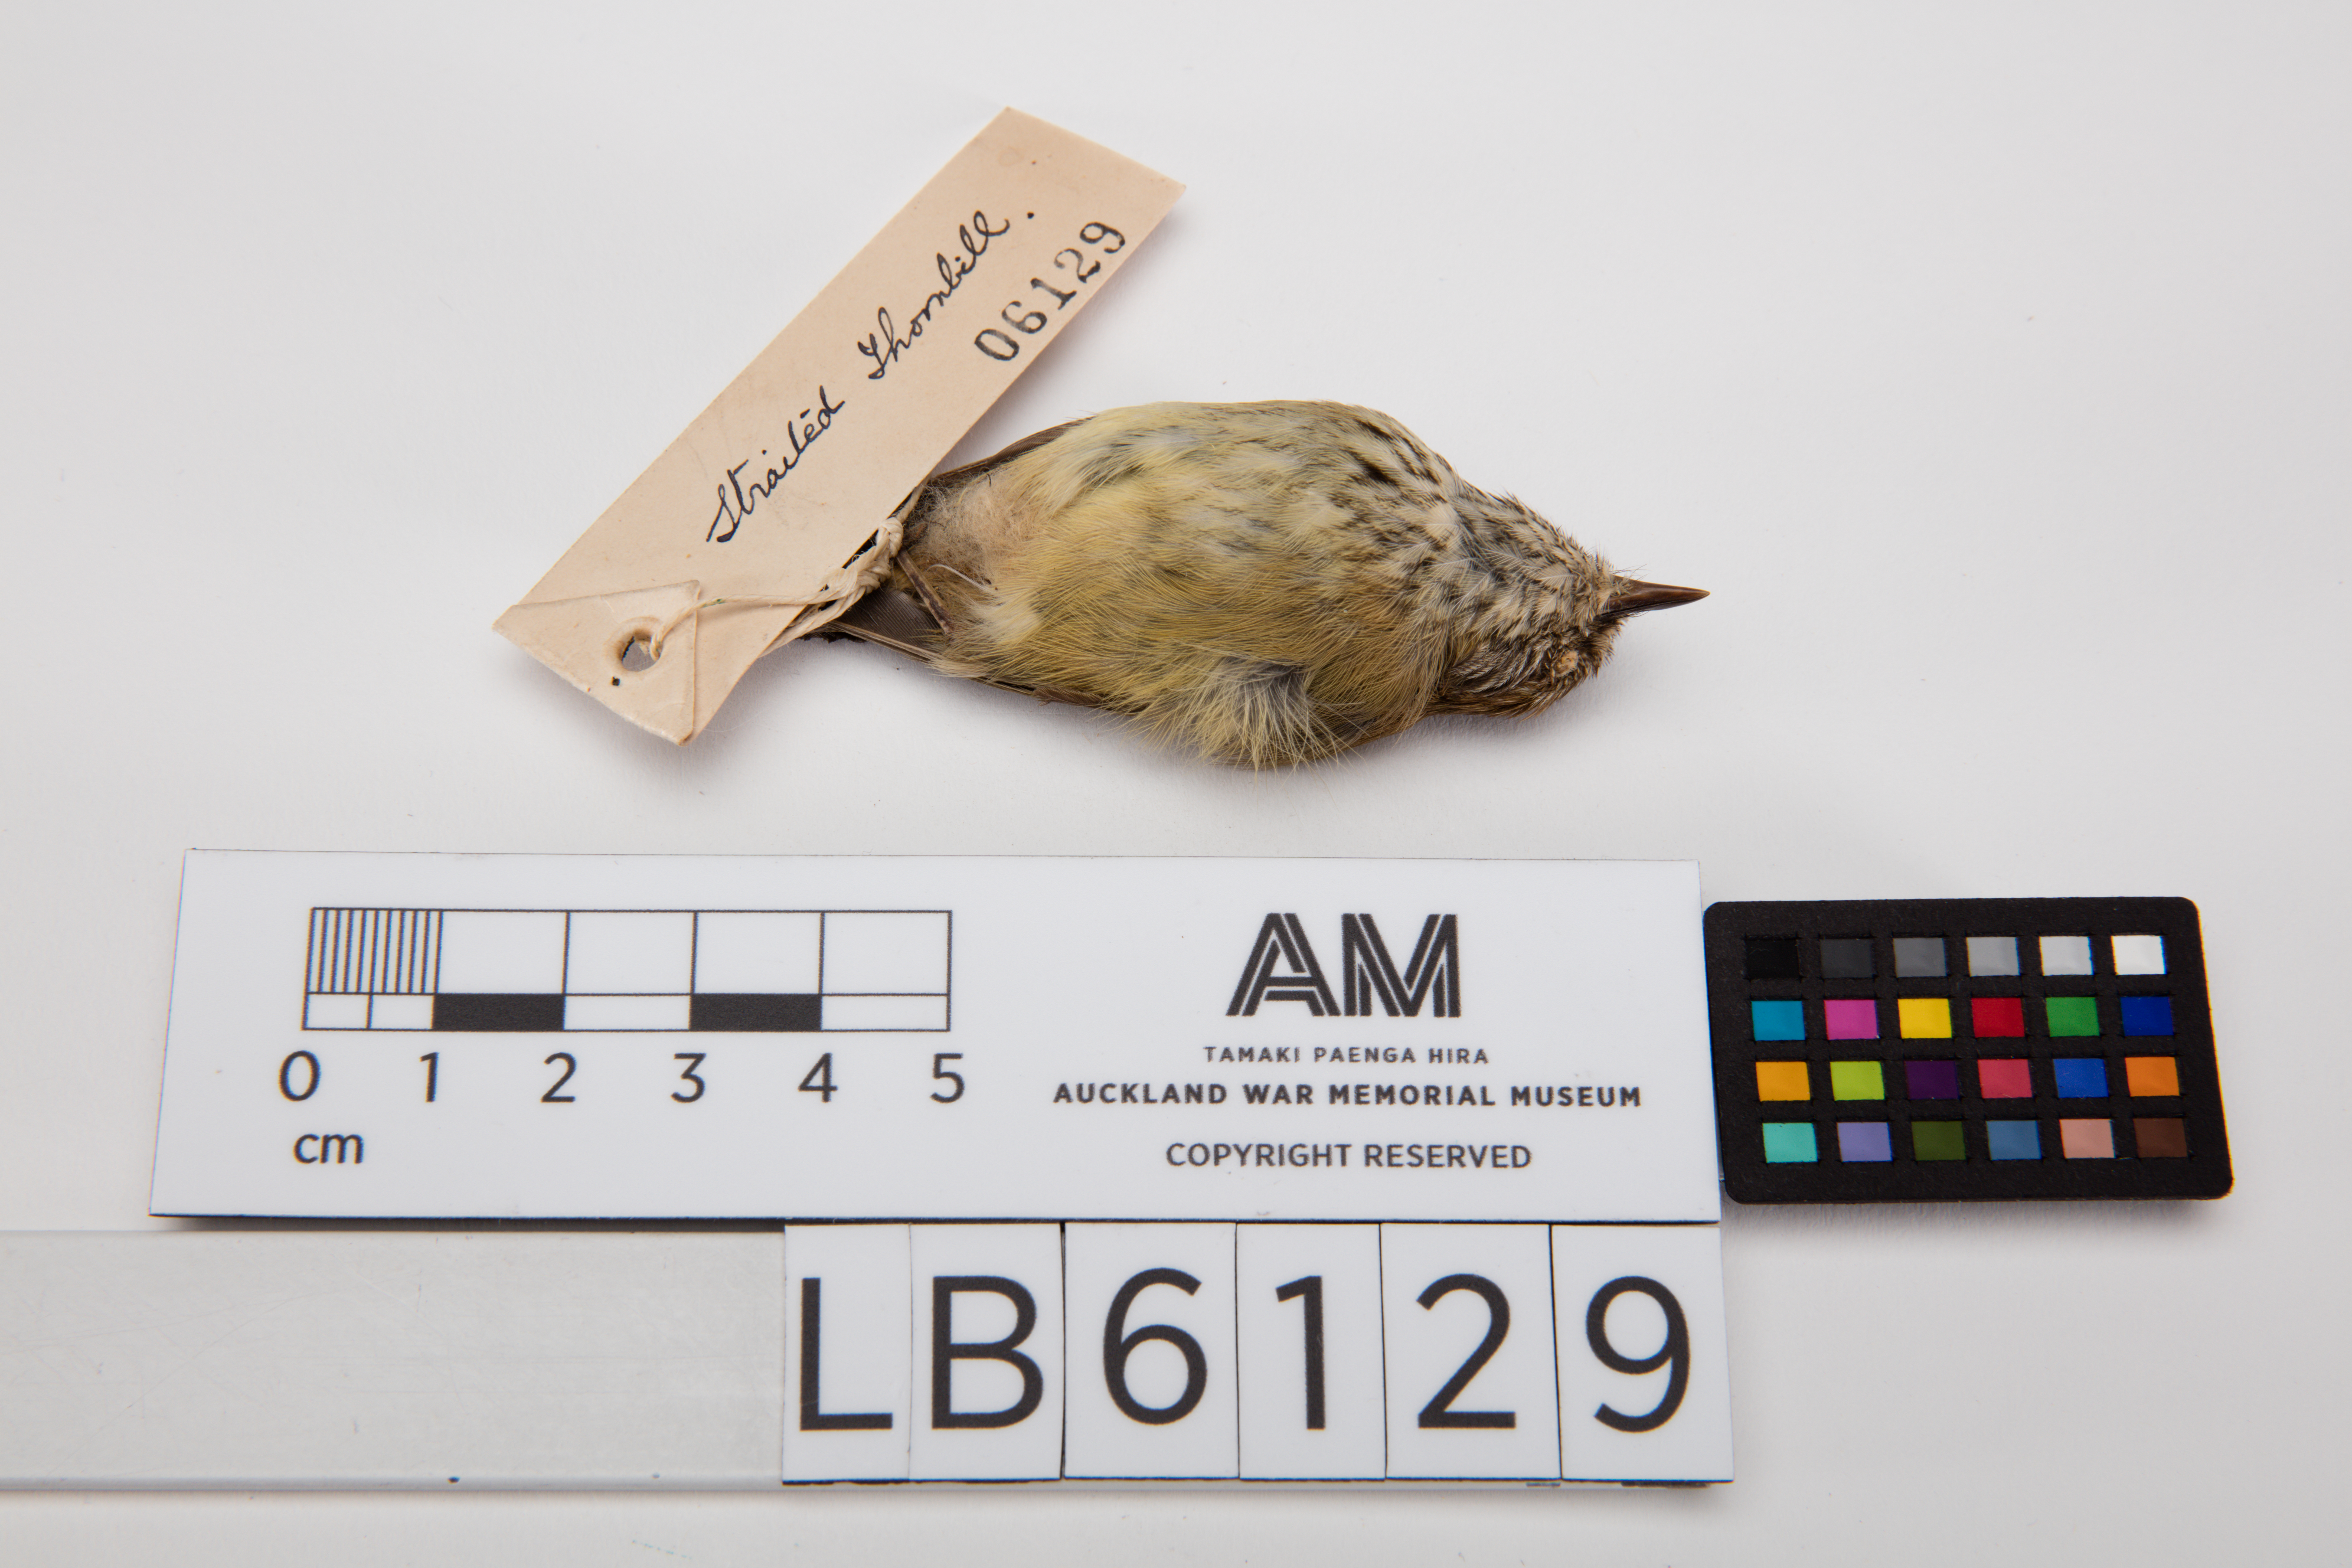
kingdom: Animalia
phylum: Chordata
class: Aves
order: Passeriformes
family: Acanthizidae
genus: Acanthiza
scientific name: Acanthiza lineata
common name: Striated thornbill
